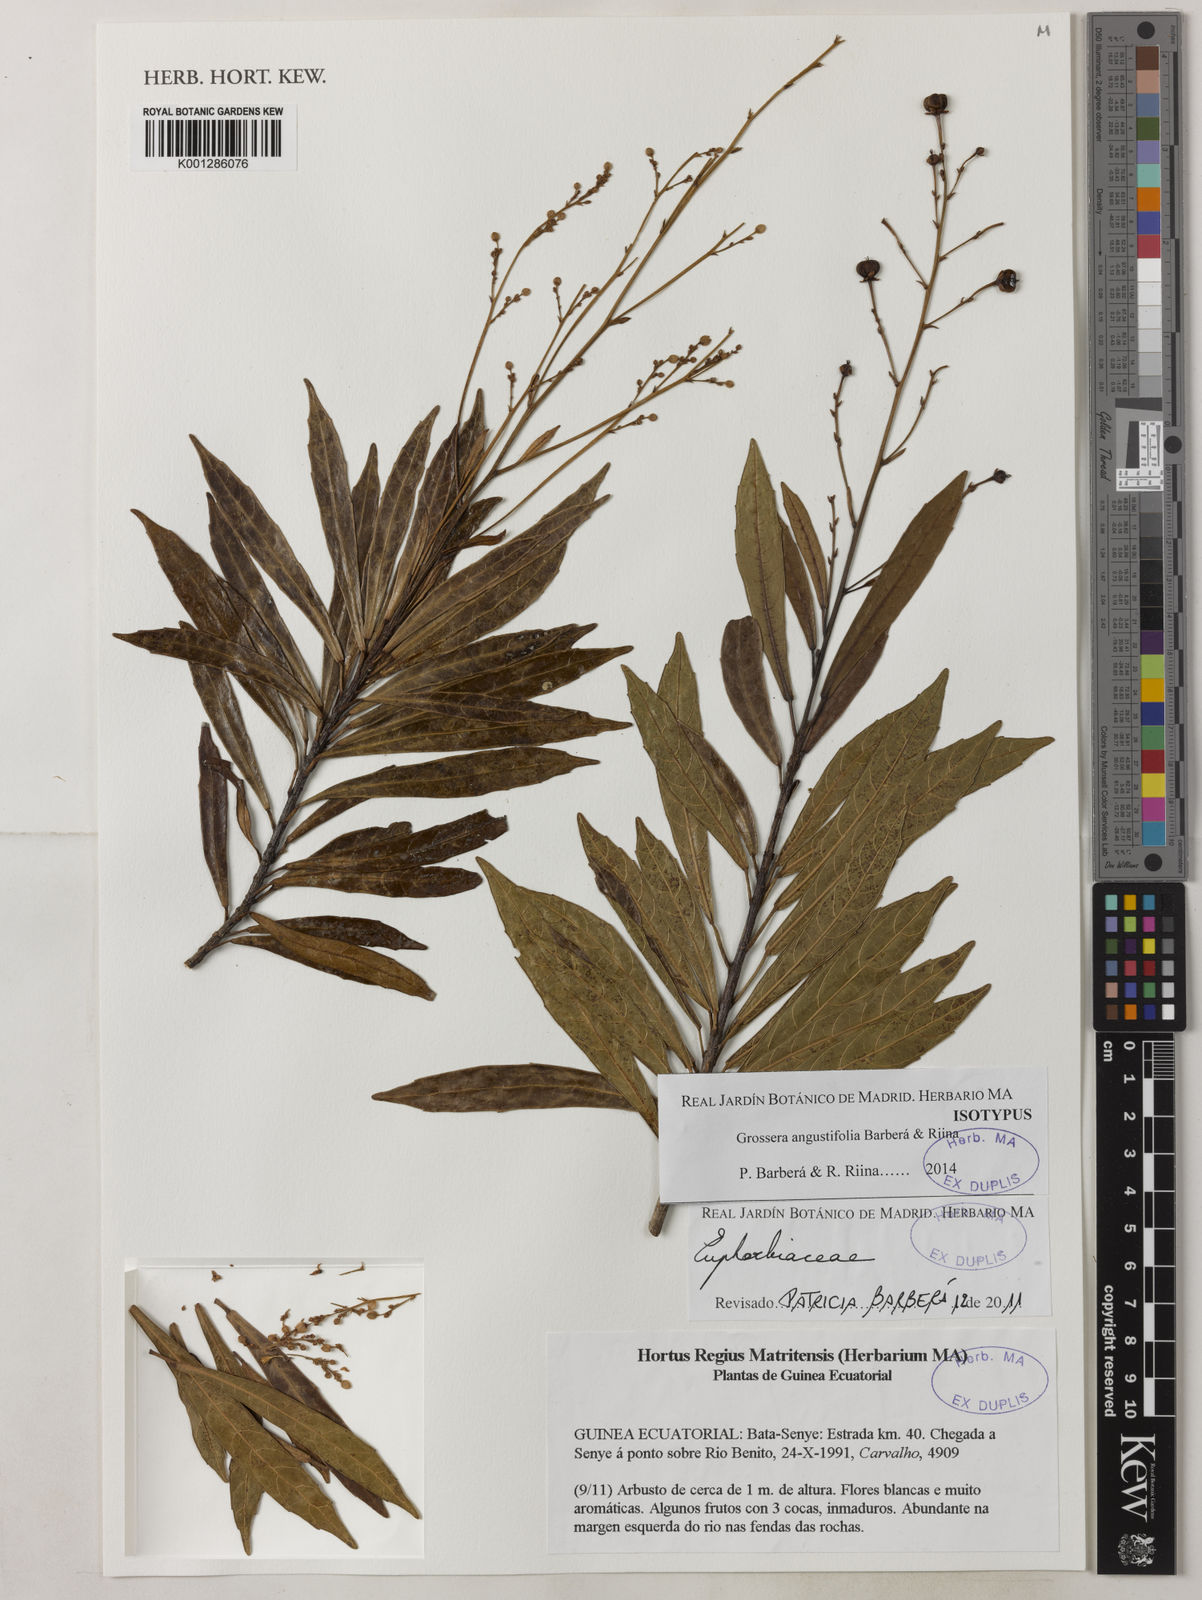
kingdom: Plantae
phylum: Tracheophyta
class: Magnoliopsida
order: Malpighiales
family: Euphorbiaceae
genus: Grossera
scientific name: Grossera
